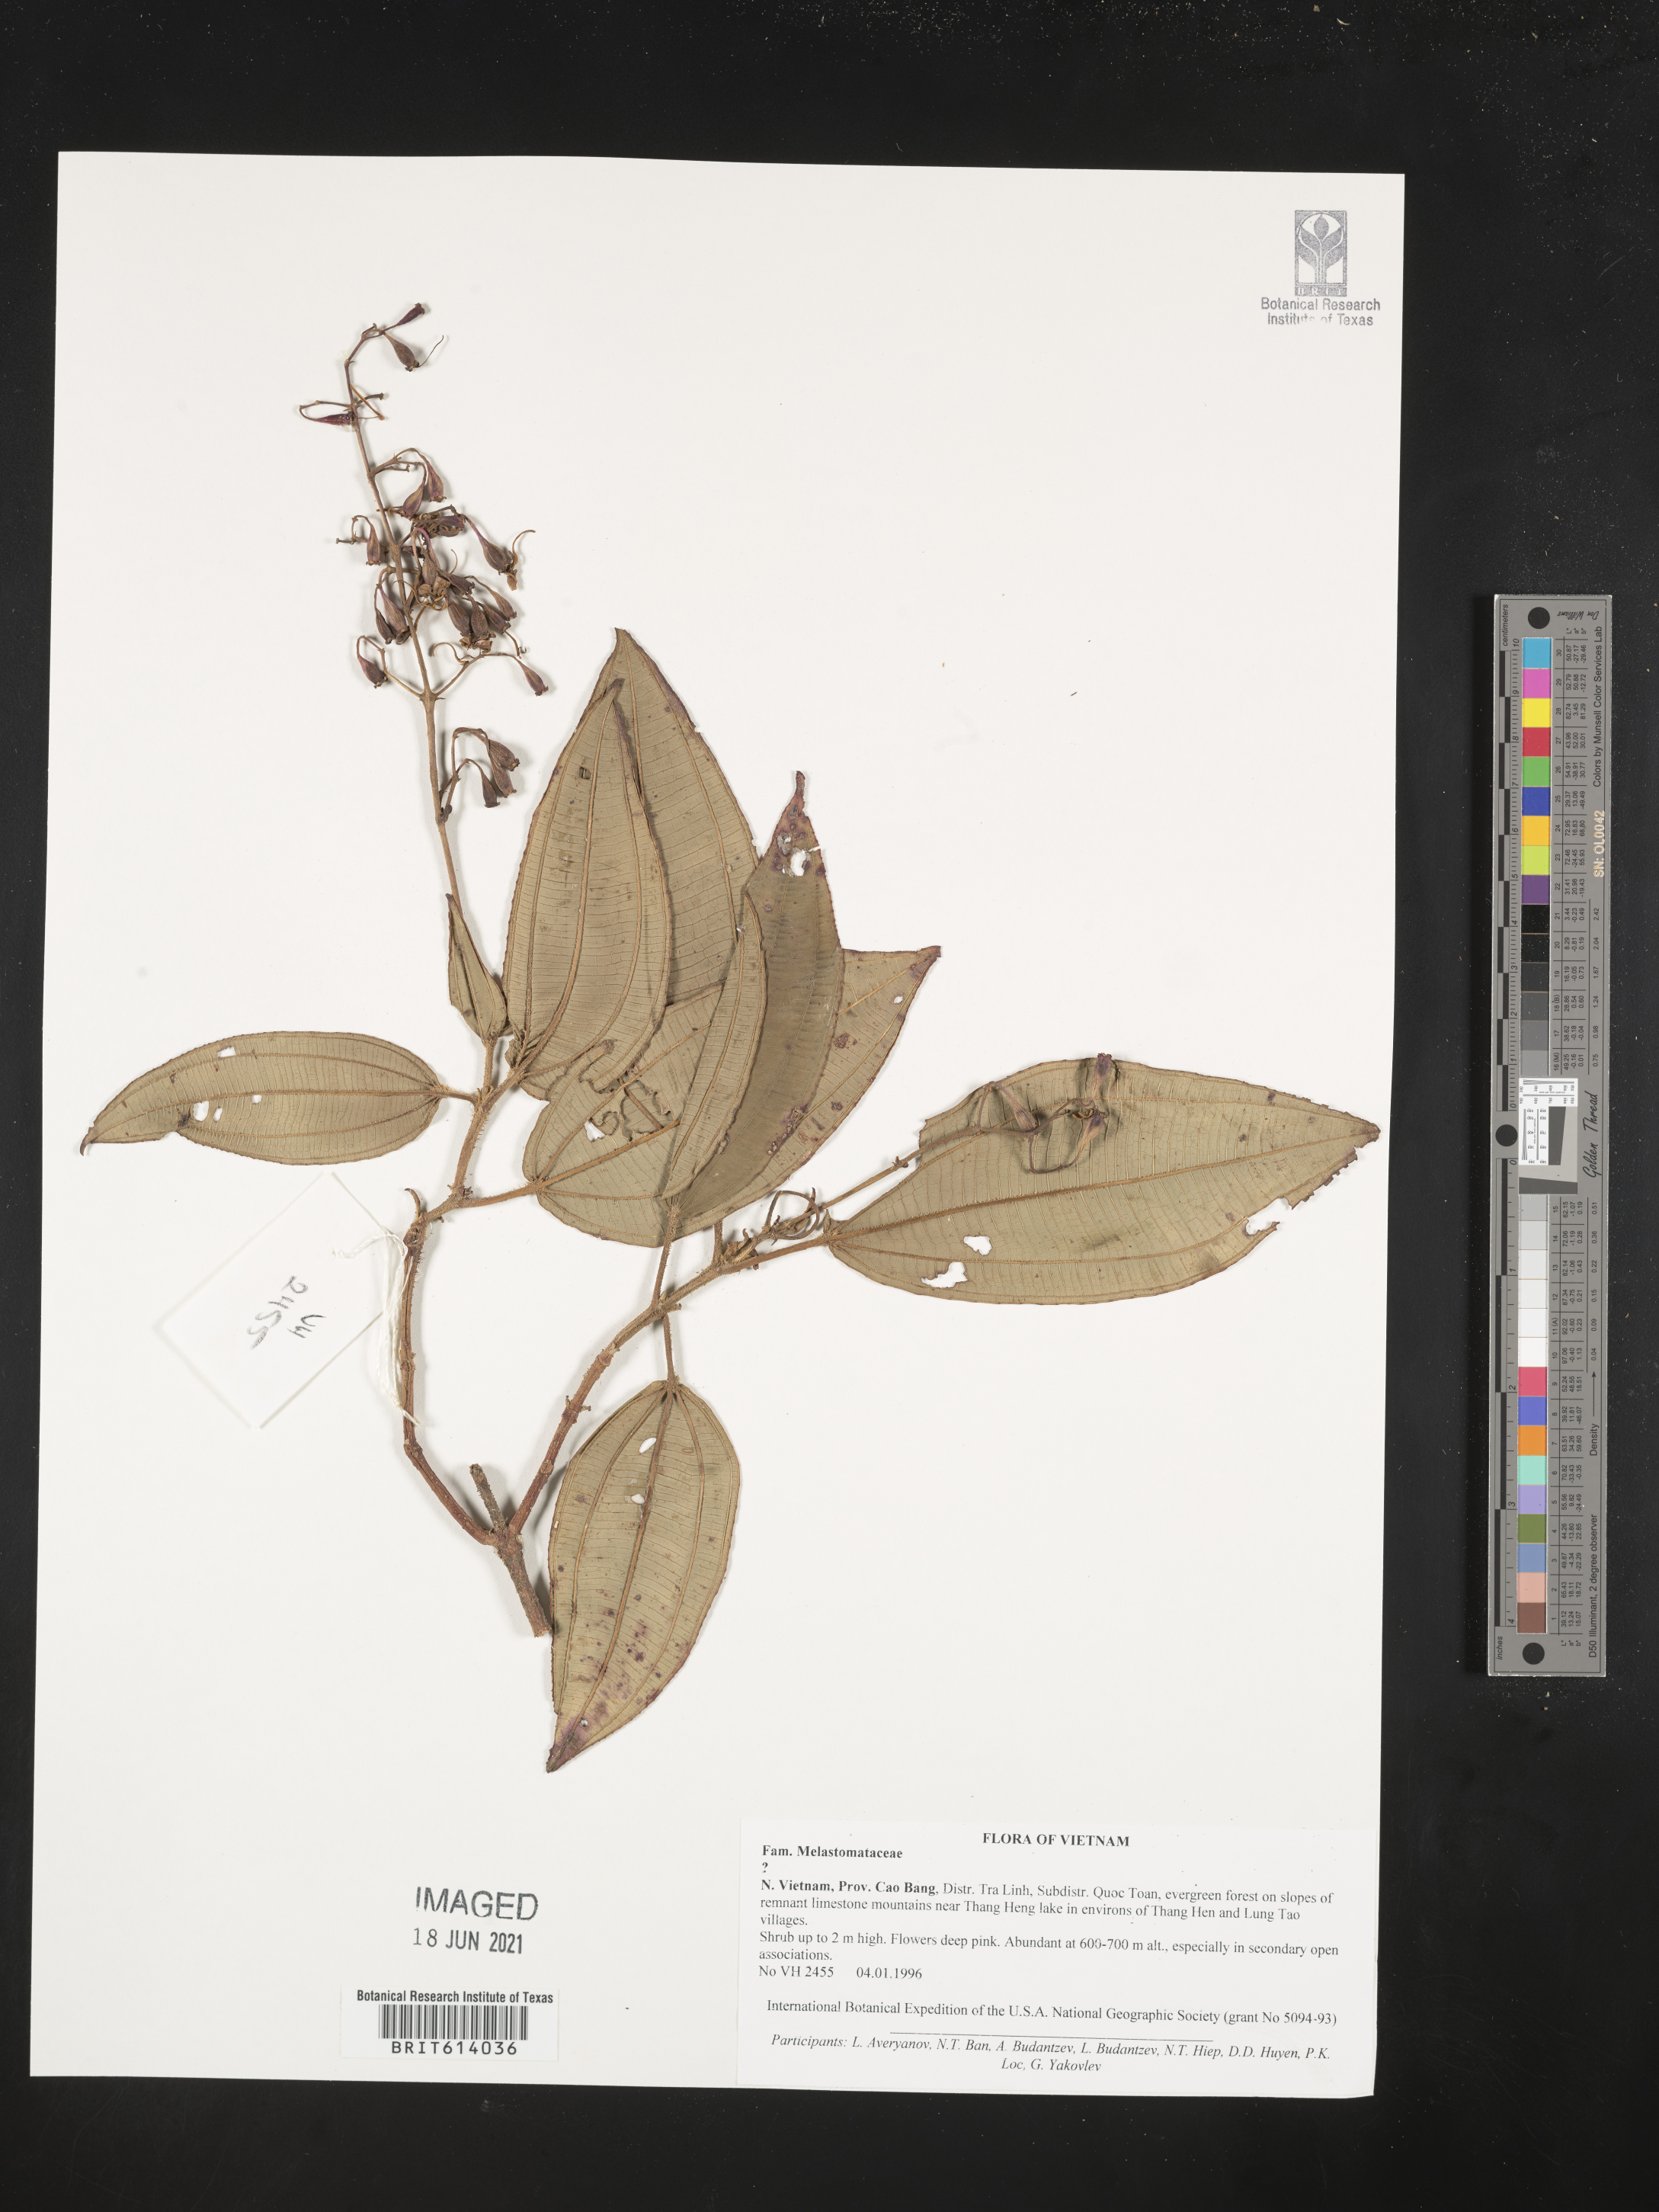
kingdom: Plantae
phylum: Tracheophyta
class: Magnoliopsida
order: Myrtales
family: Melastomataceae
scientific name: Melastomataceae
